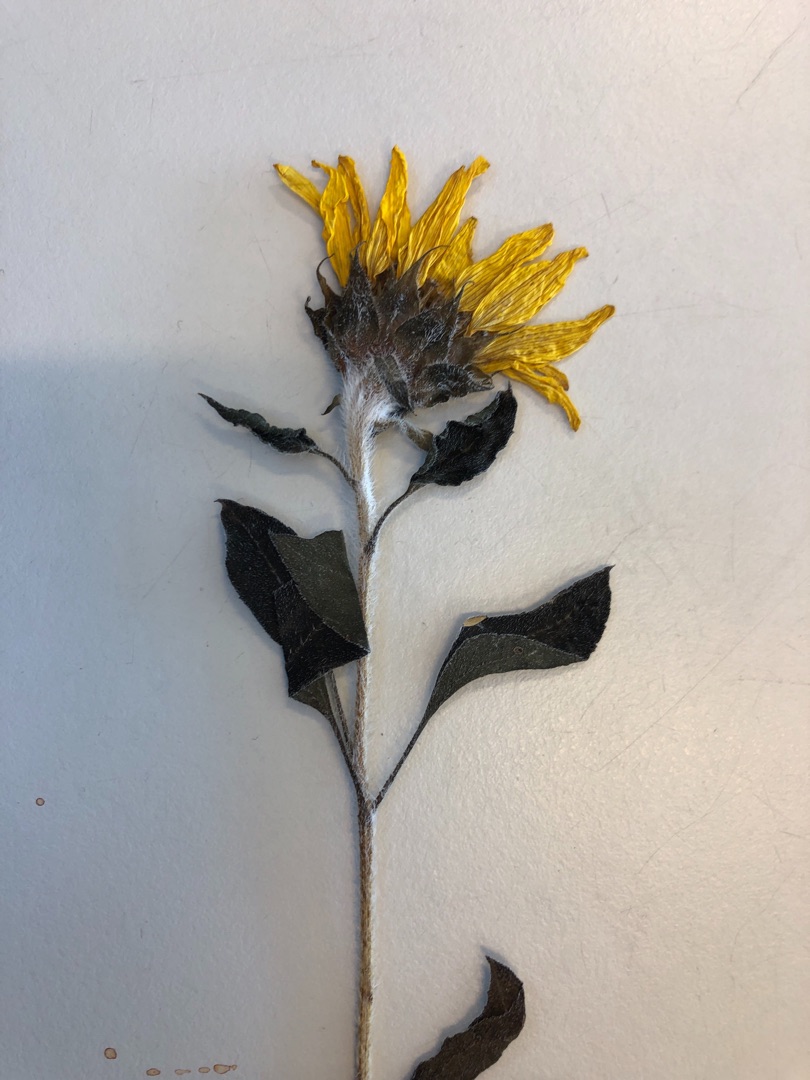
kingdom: Plantae
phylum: Tracheophyta
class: Magnoliopsida
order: Asterales
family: Asteraceae
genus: Helianthus
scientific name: Helianthus annuus
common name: Solsikke
